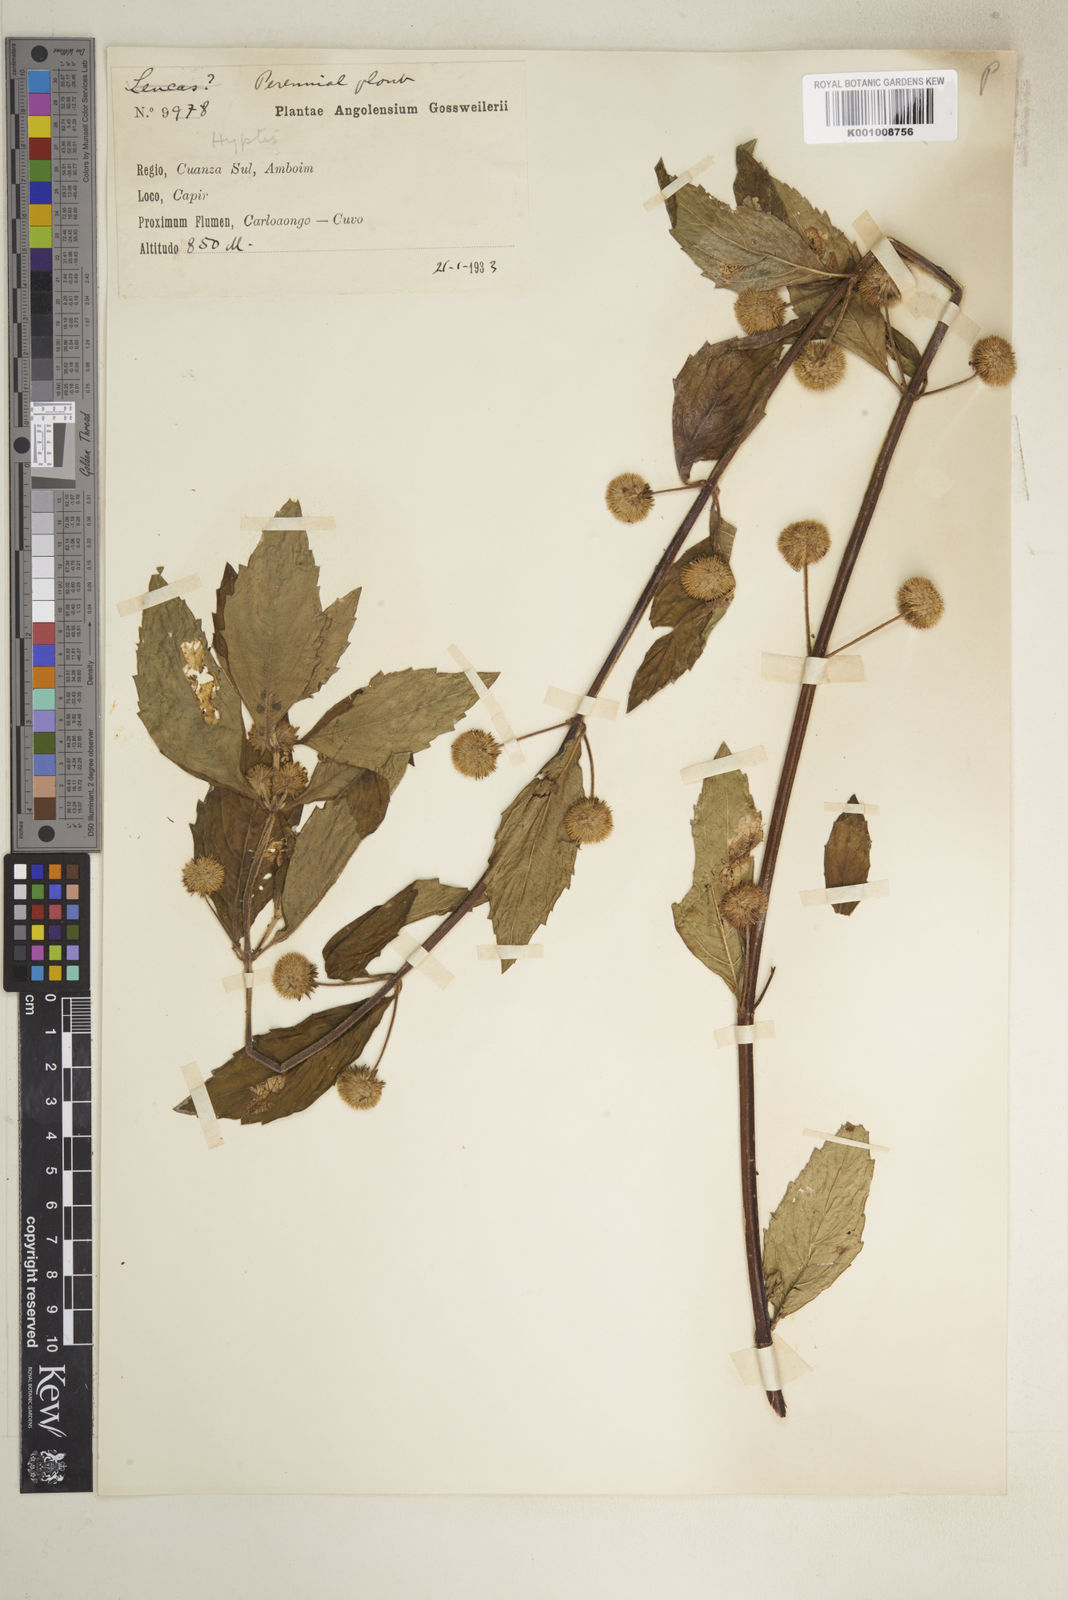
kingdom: Plantae
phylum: Tracheophyta
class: Magnoliopsida
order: Lamiales
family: Lamiaceae
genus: Hyptis
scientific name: Hyptis lanceolata
